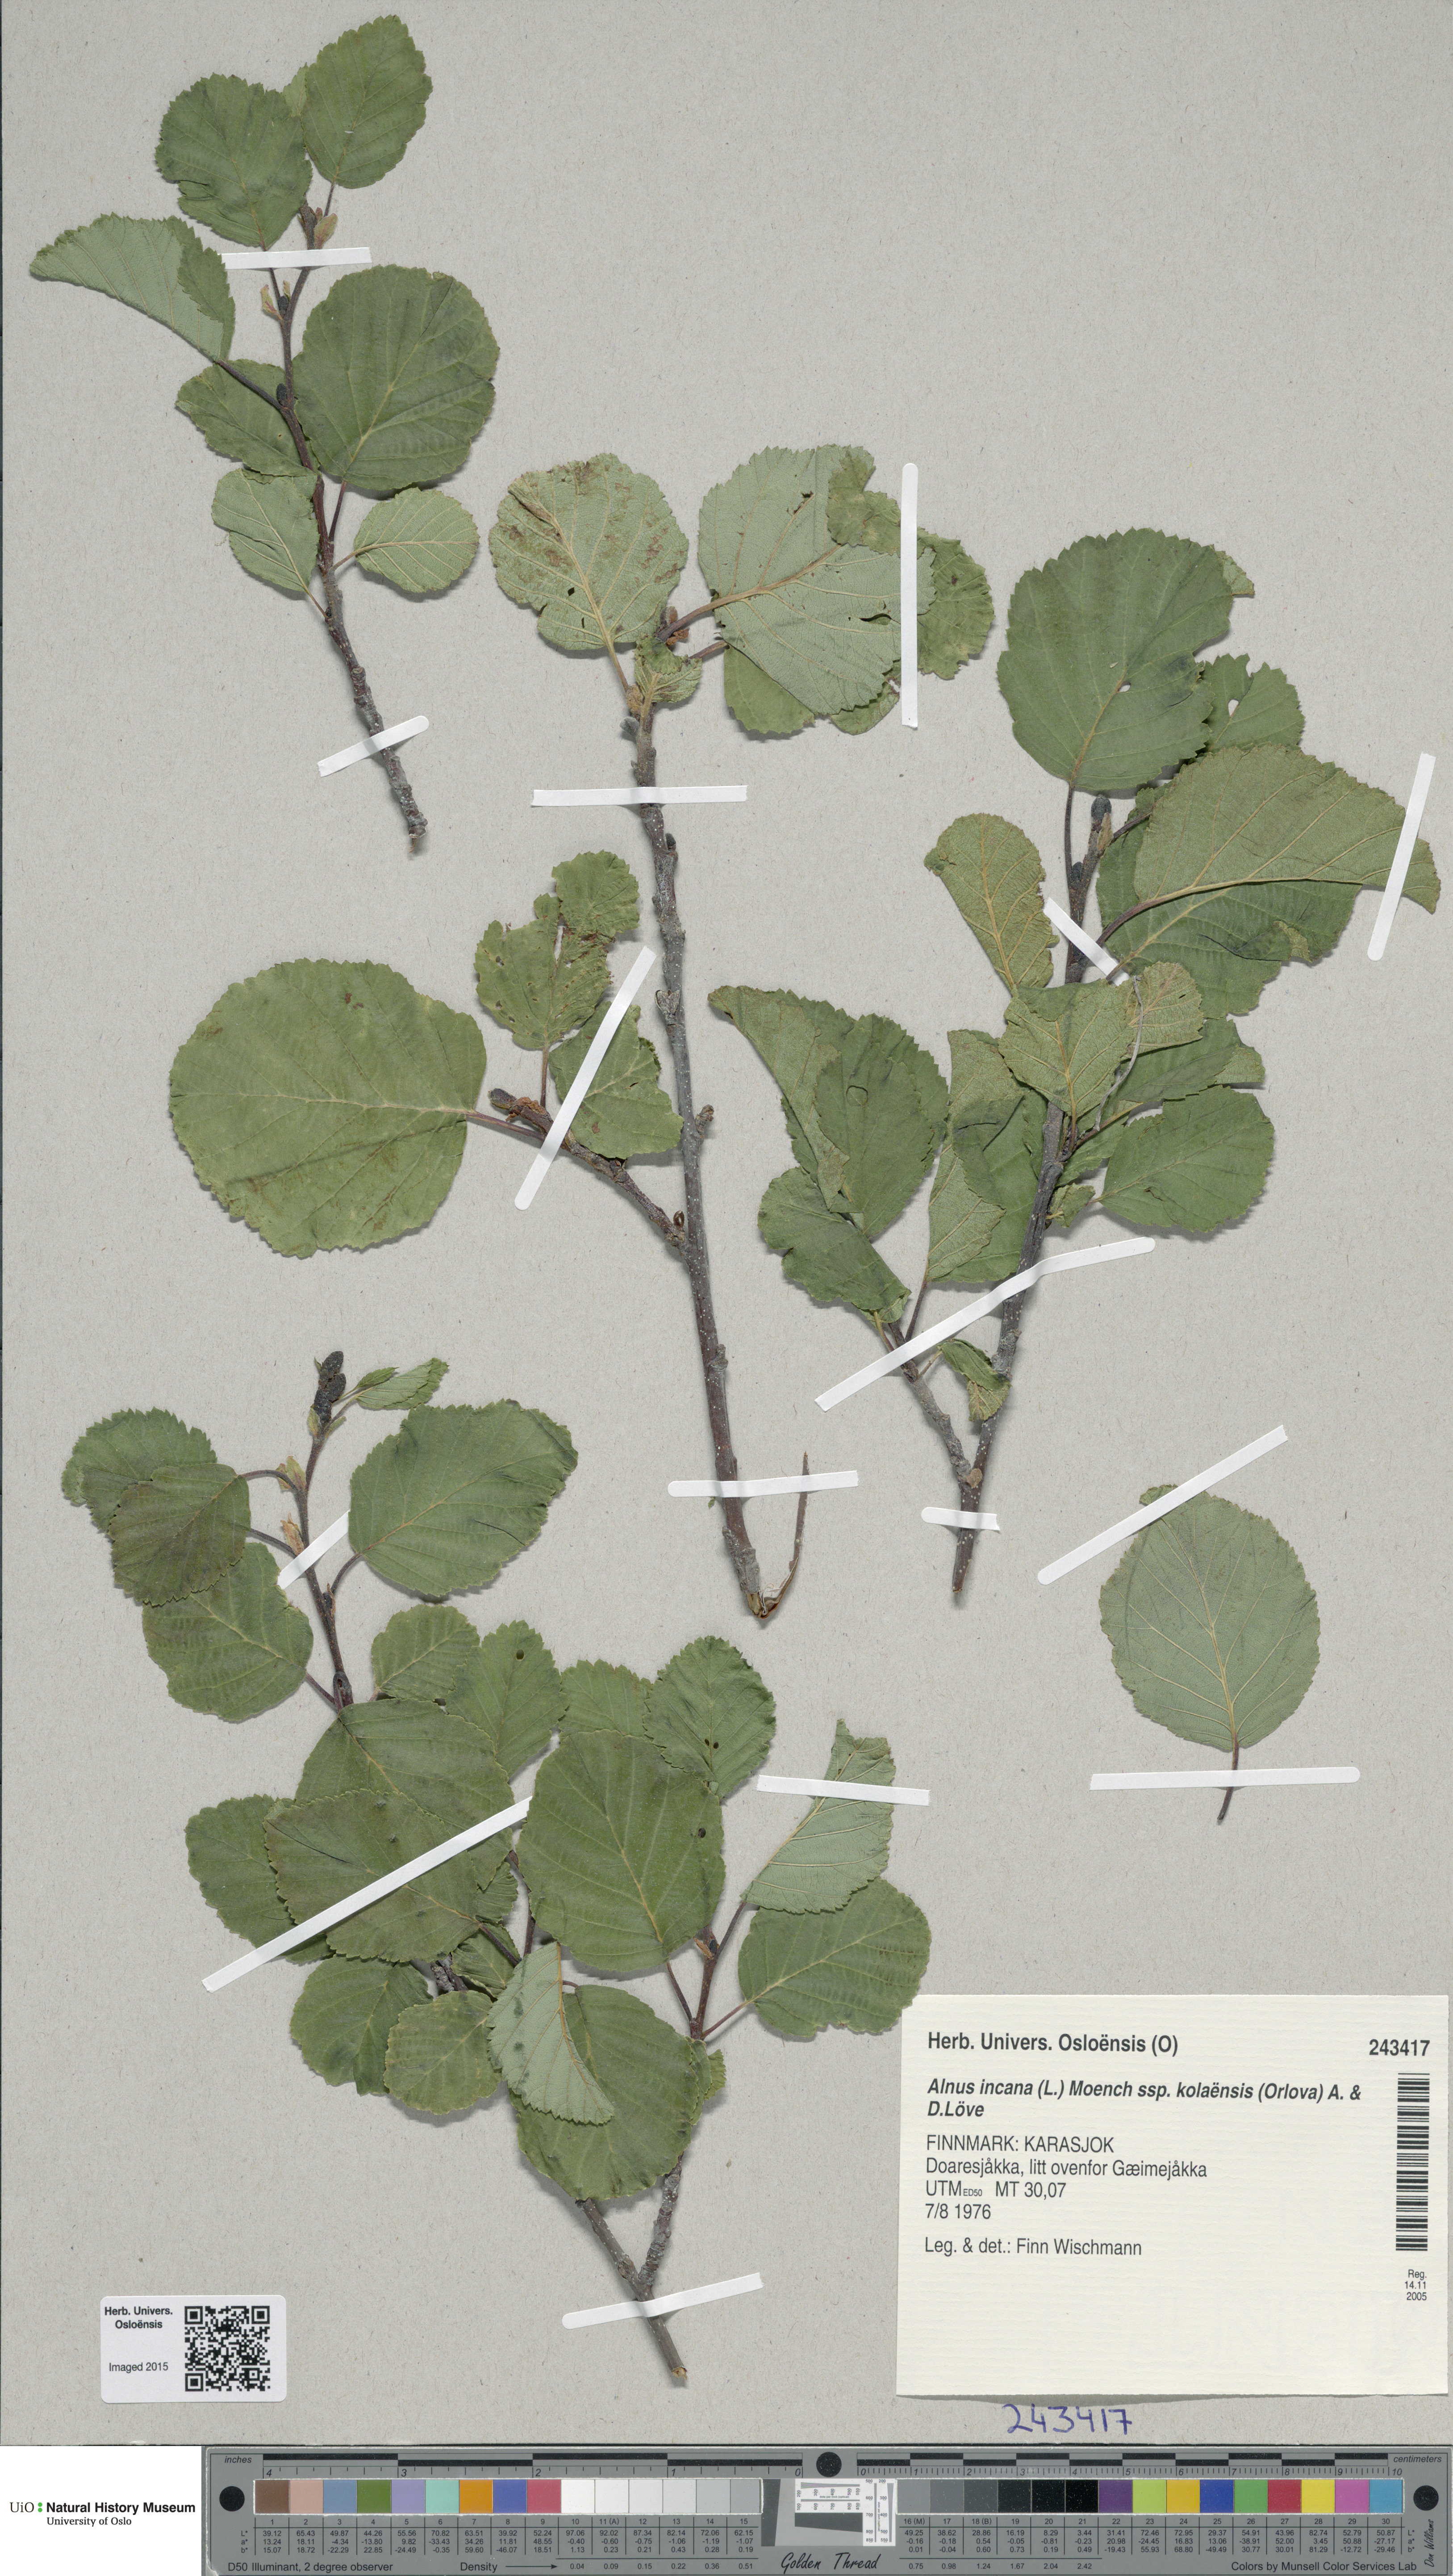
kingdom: Plantae
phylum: Tracheophyta
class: Magnoliopsida
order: Fagales
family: Betulaceae
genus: Alnus
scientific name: Alnus incana
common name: Grey alder
